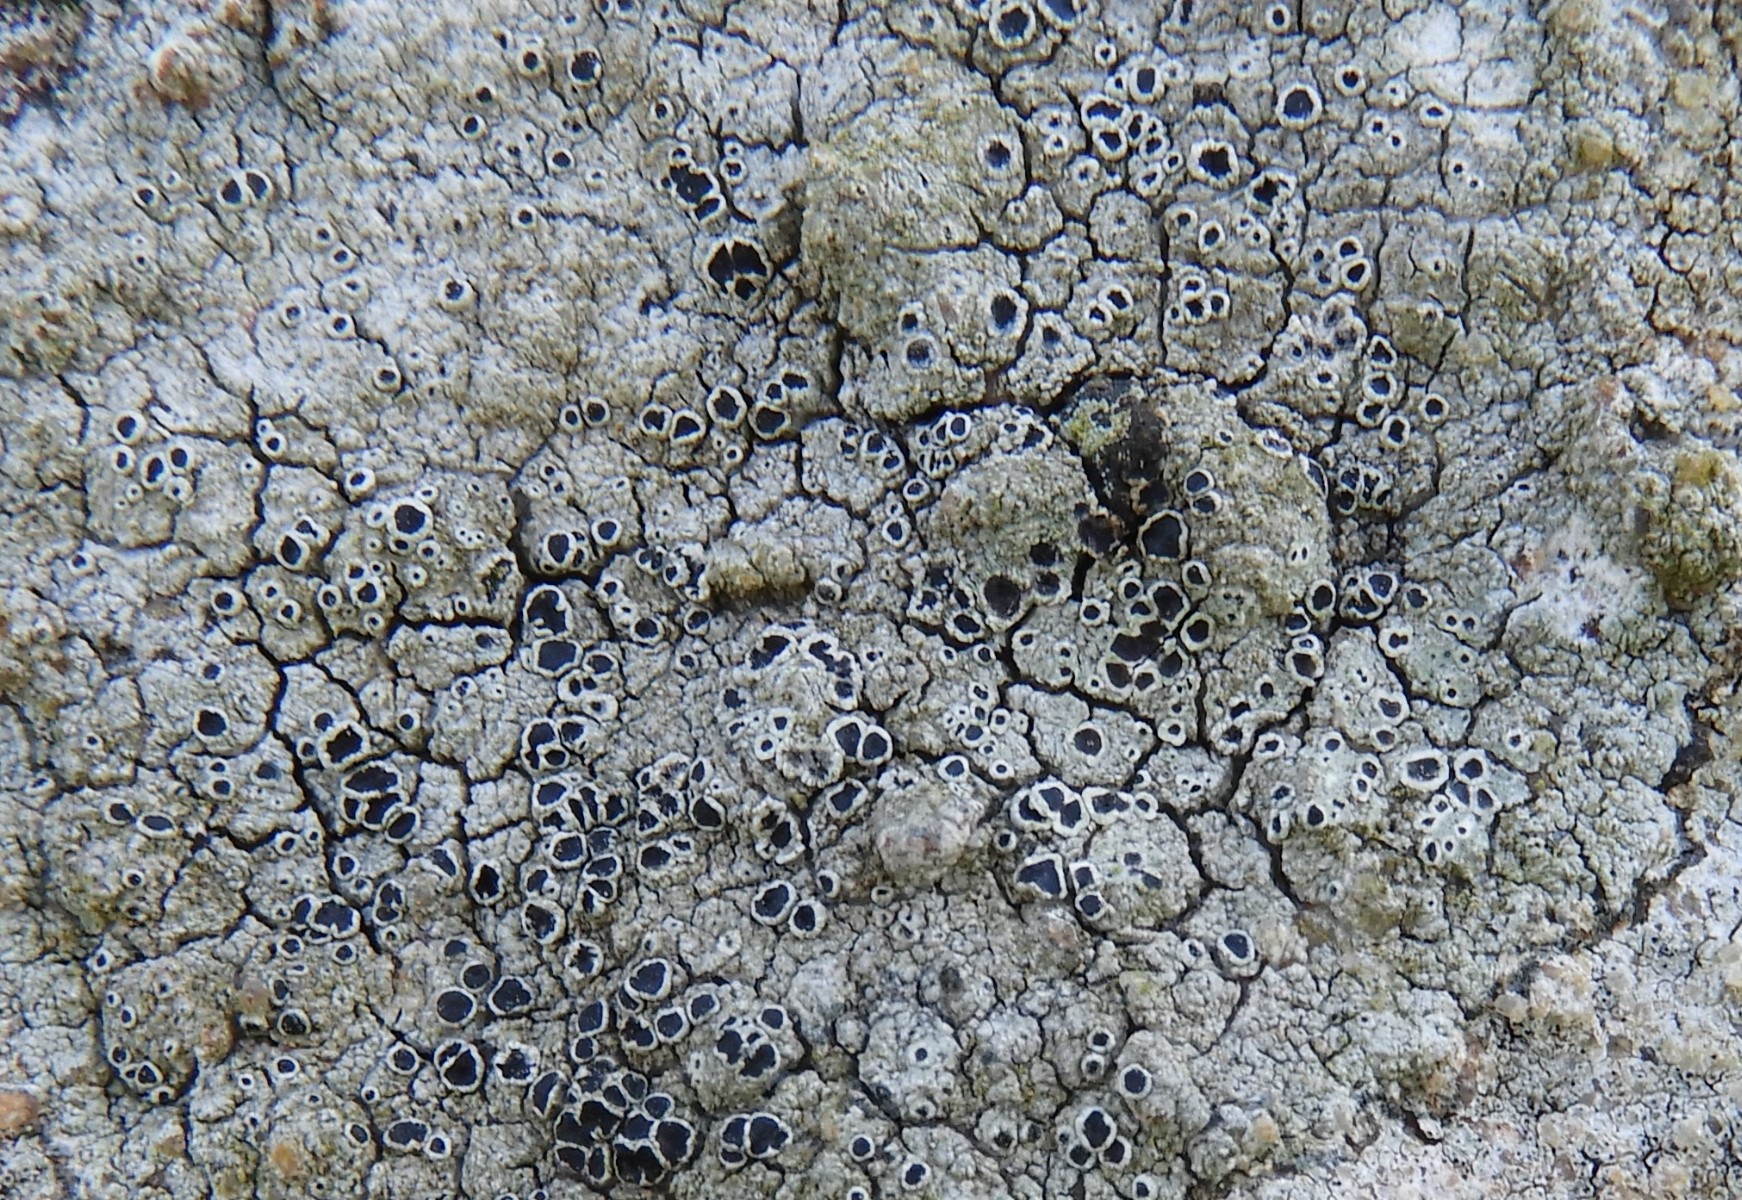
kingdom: Fungi
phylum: Ascomycota
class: Lecanoromycetes
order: Lecanorales
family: Tephromelataceae
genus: Tephromela
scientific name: Tephromela atra
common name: sortfrugtet kantskivelav
